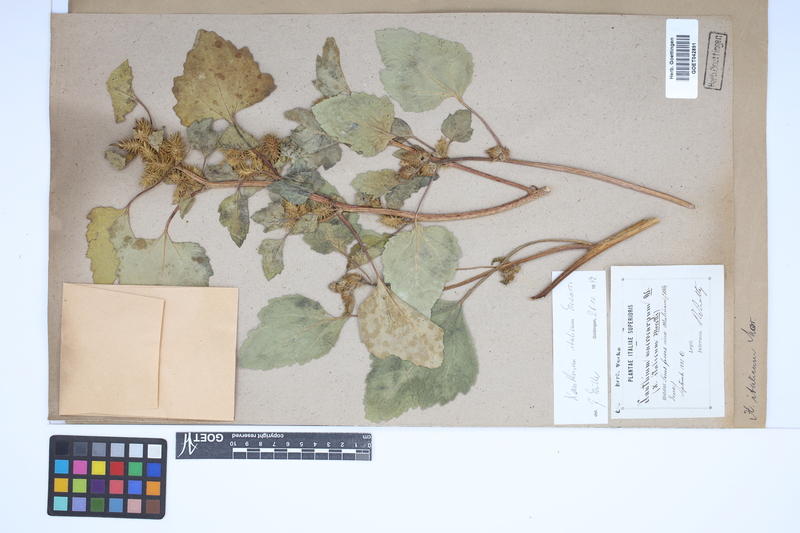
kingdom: Plantae
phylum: Tracheophyta
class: Magnoliopsida
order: Asterales
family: Asteraceae
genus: Xanthium
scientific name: Xanthium orientale
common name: Californian burr
